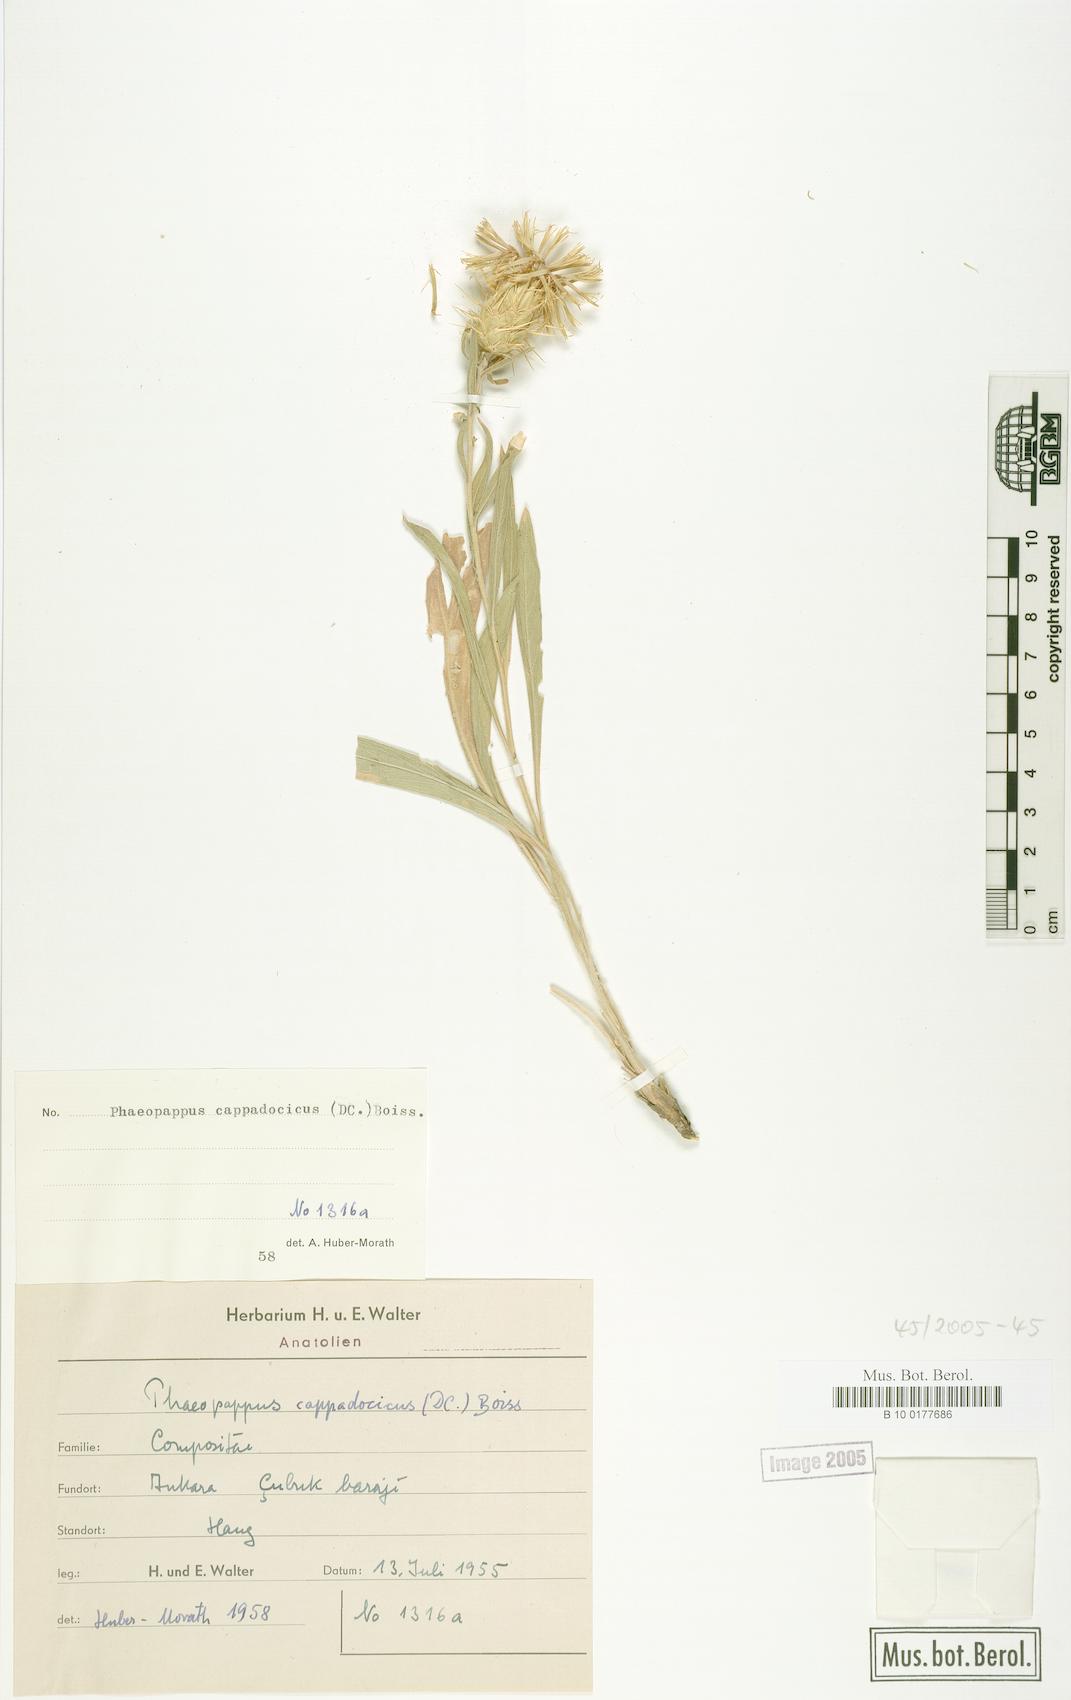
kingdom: Plantae
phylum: Tracheophyta
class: Magnoliopsida
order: Asterales
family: Asteraceae
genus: Centaurea
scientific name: Centaurea drabifolia
